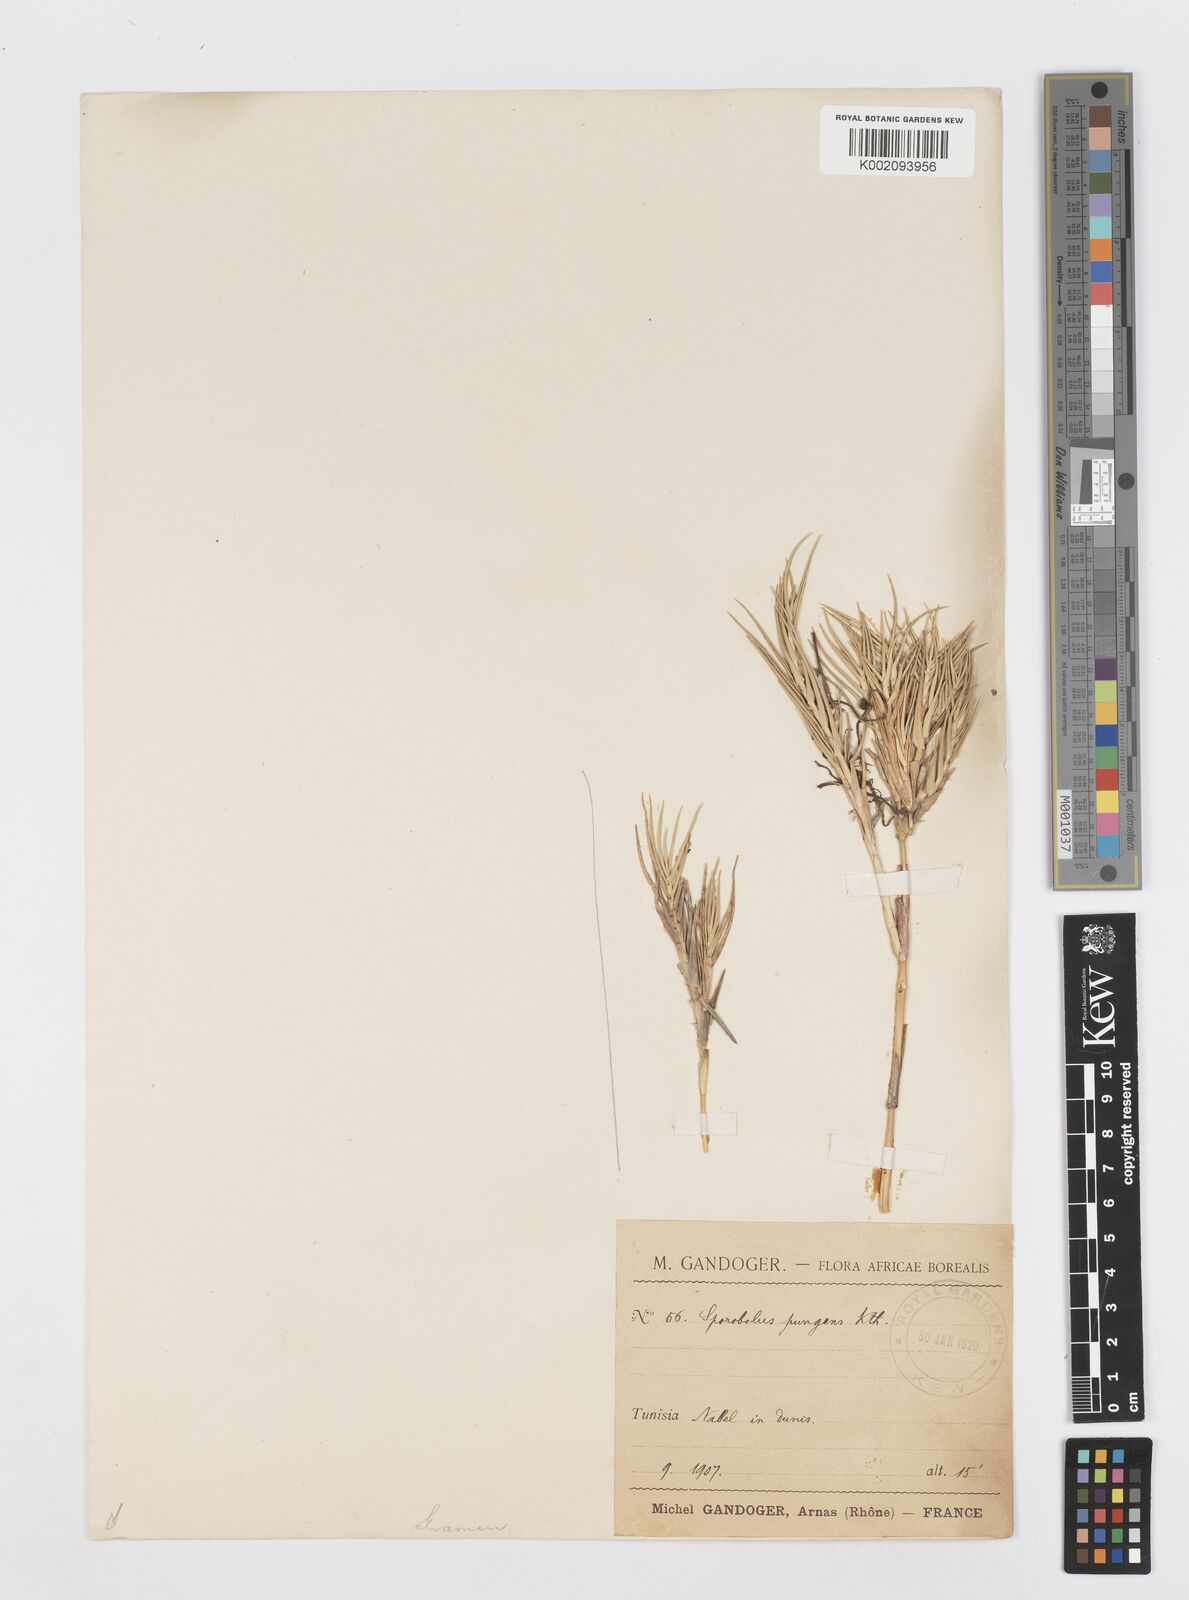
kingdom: Plantae
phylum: Tracheophyta
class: Liliopsida
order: Poales
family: Poaceae
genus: Sporobolus
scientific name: Sporobolus pungens
